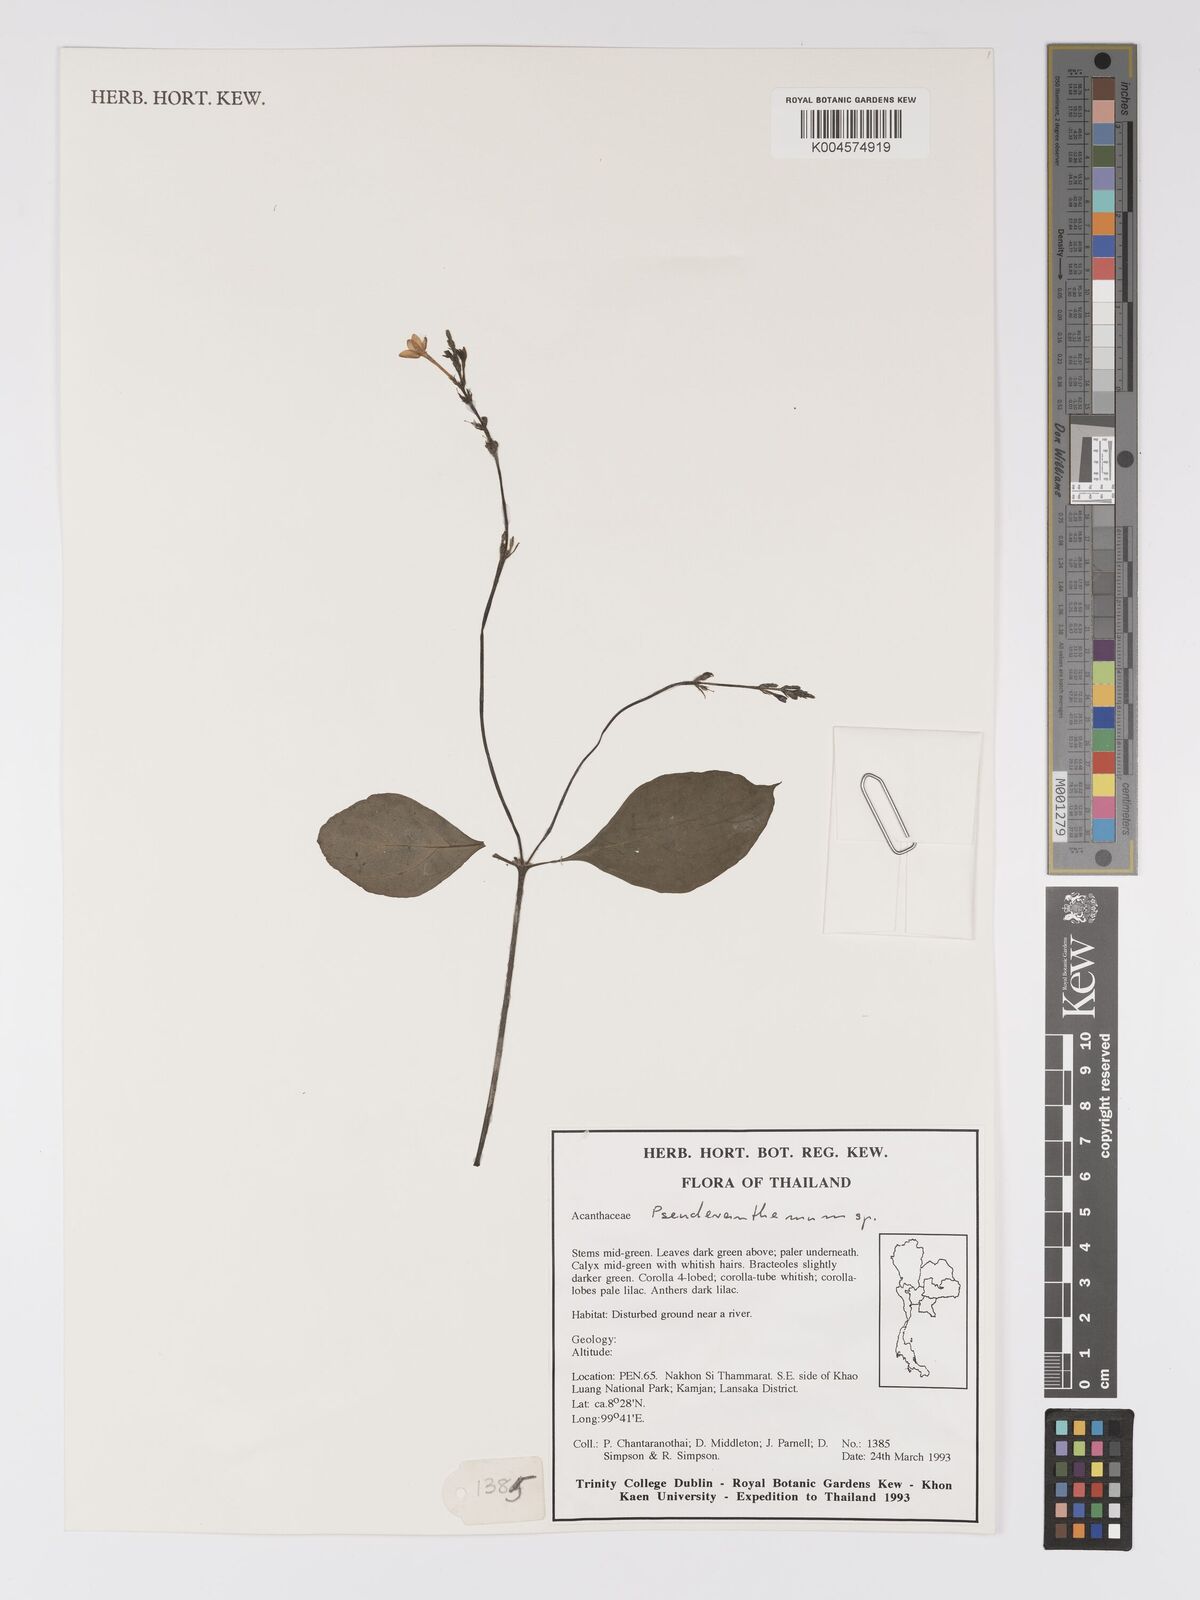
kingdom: Plantae
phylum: Tracheophyta
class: Magnoliopsida
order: Lamiales
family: Acanthaceae
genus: Pseuderanthemum
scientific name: Pseuderanthemum
